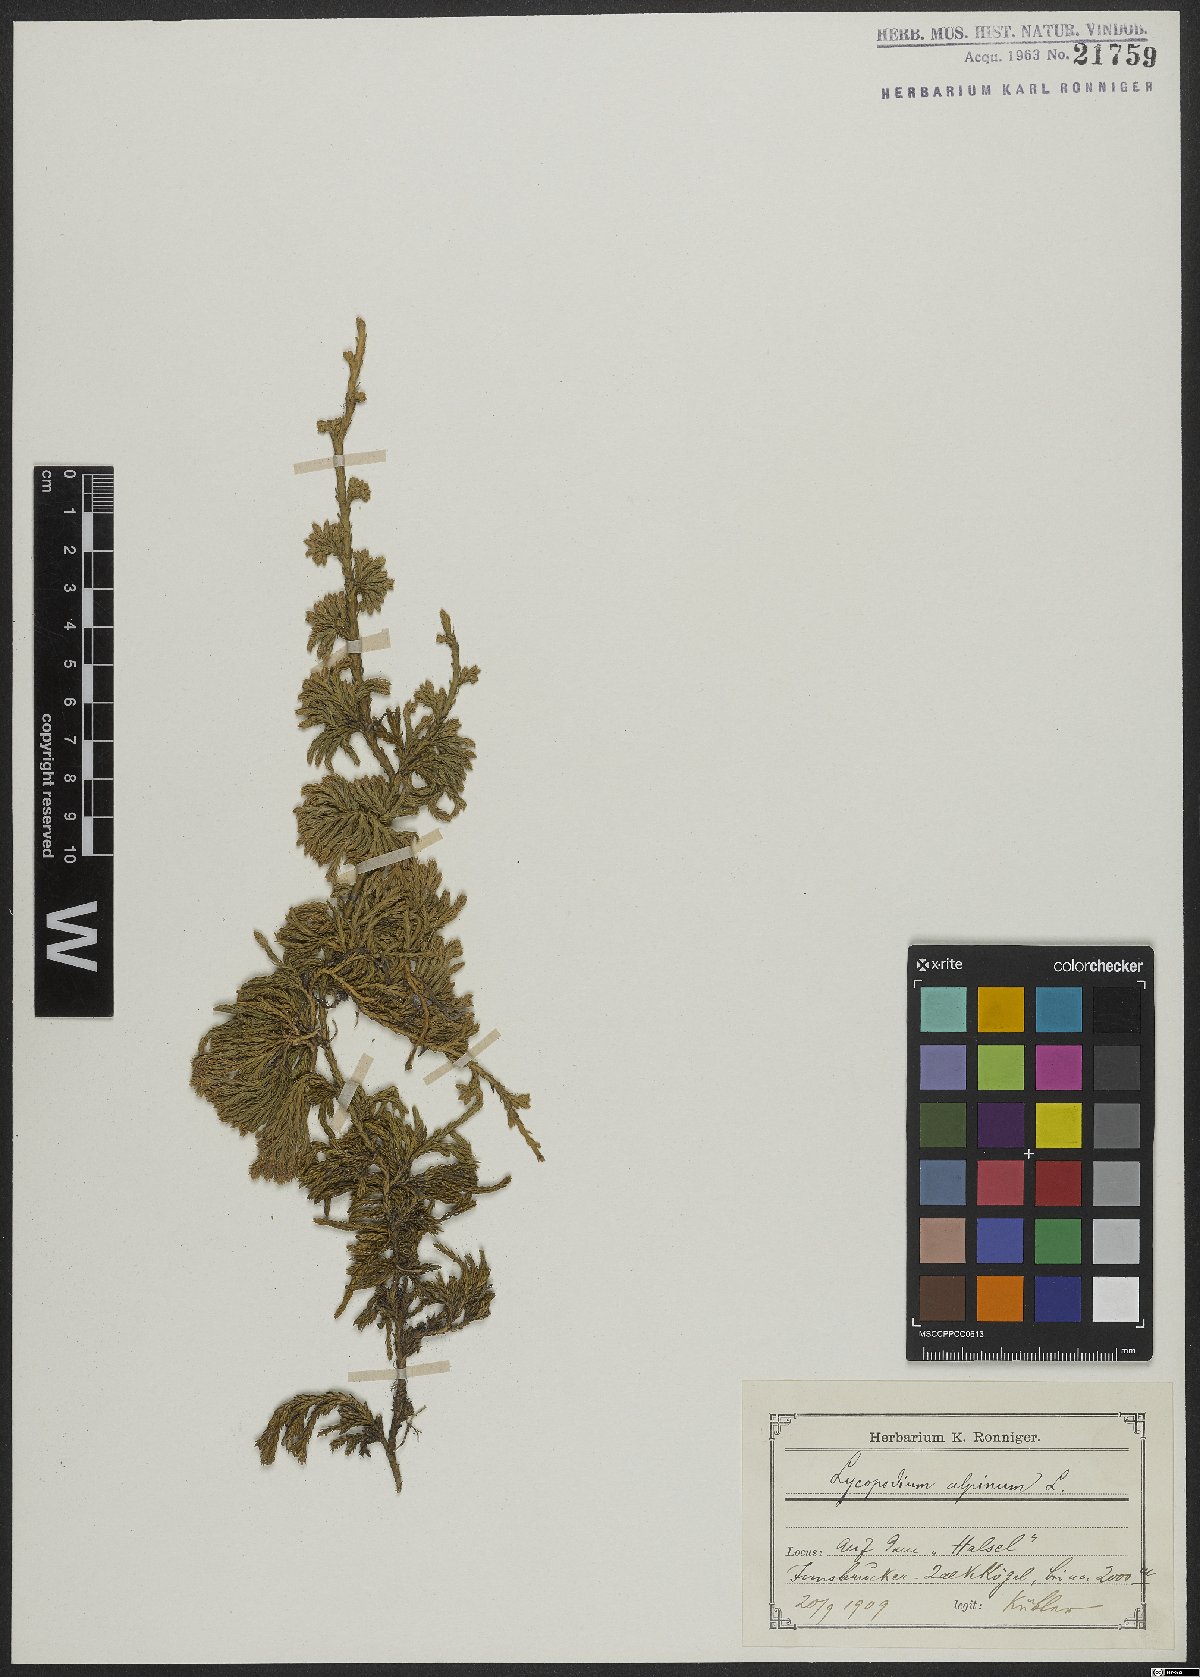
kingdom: Plantae
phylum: Tracheophyta
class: Lycopodiopsida
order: Lycopodiales
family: Lycopodiaceae
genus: Diphasiastrum
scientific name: Diphasiastrum alpinum
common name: Alpine clubmoss
